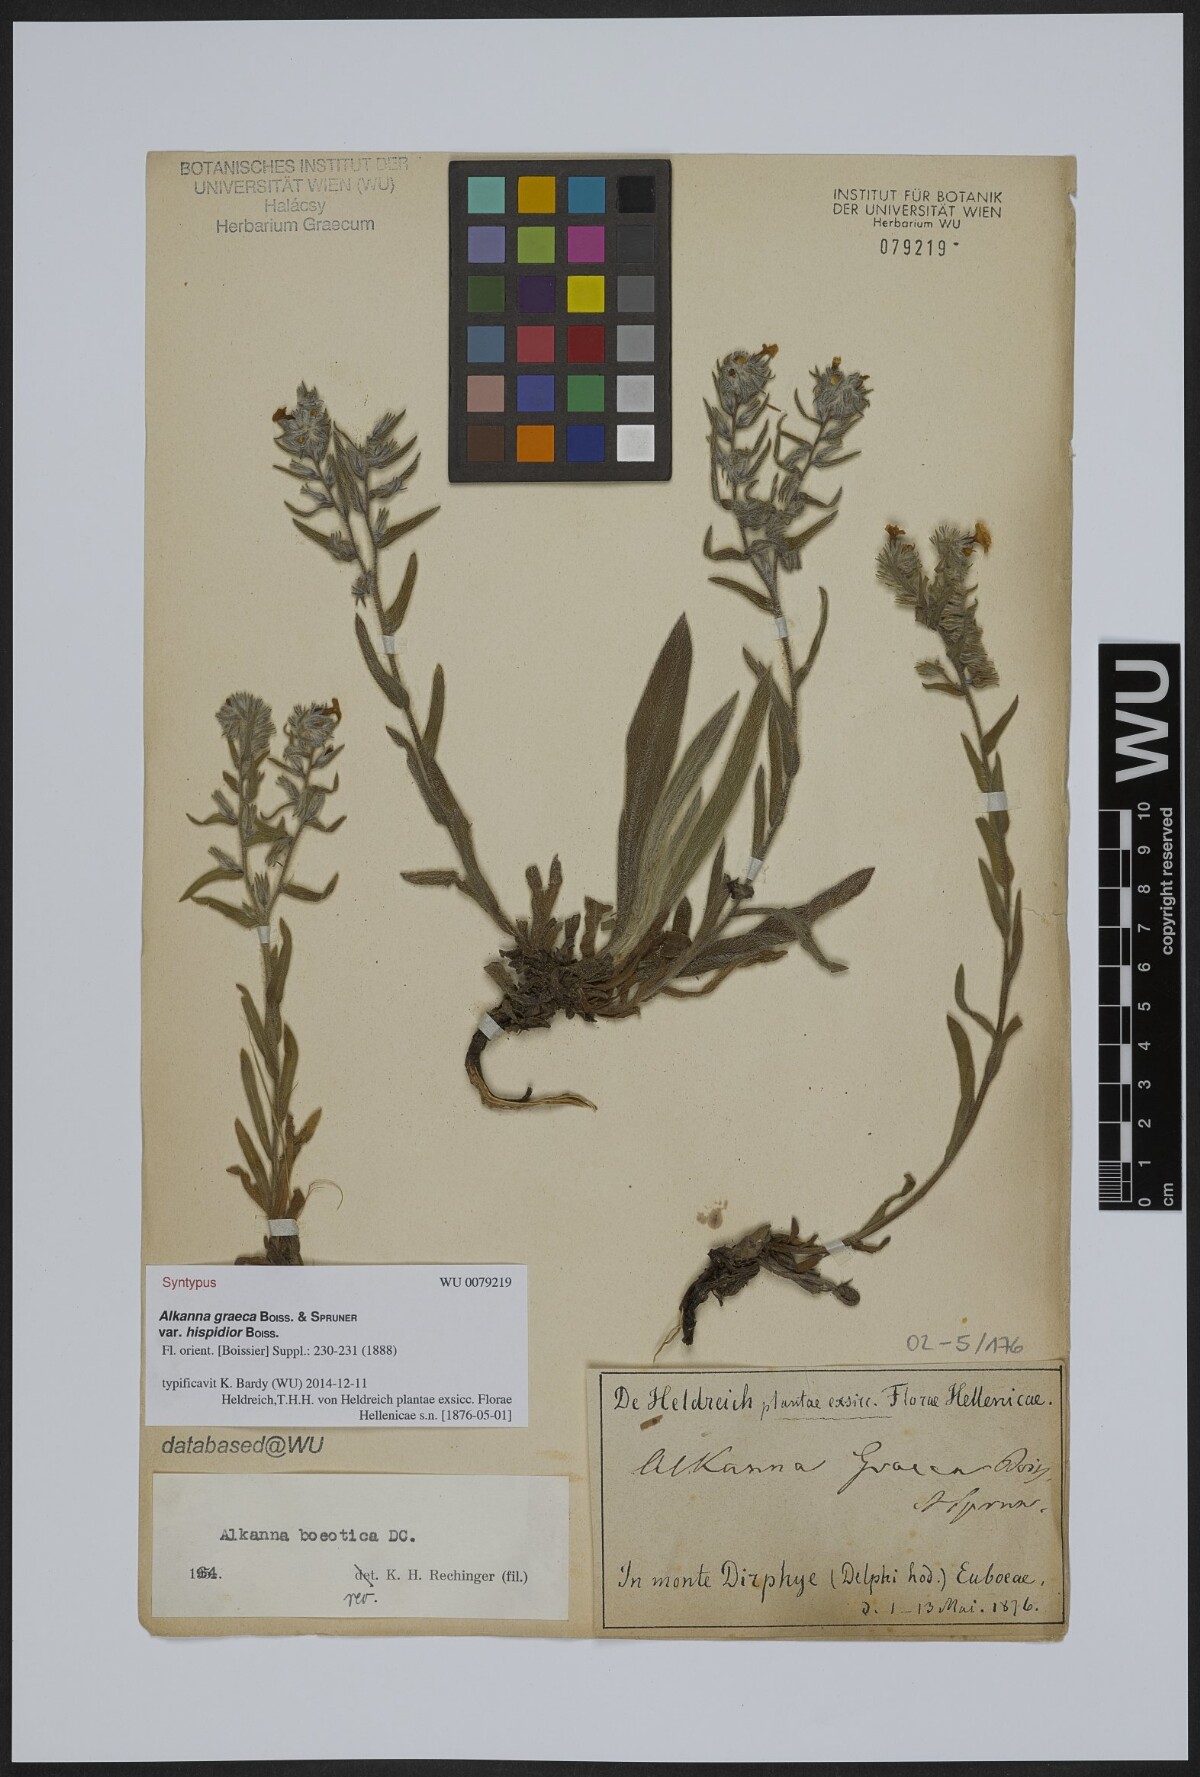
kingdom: Plantae
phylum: Tracheophyta
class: Magnoliopsida
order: Boraginales
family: Boraginaceae
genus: Alkanna
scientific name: Alkanna graeca
